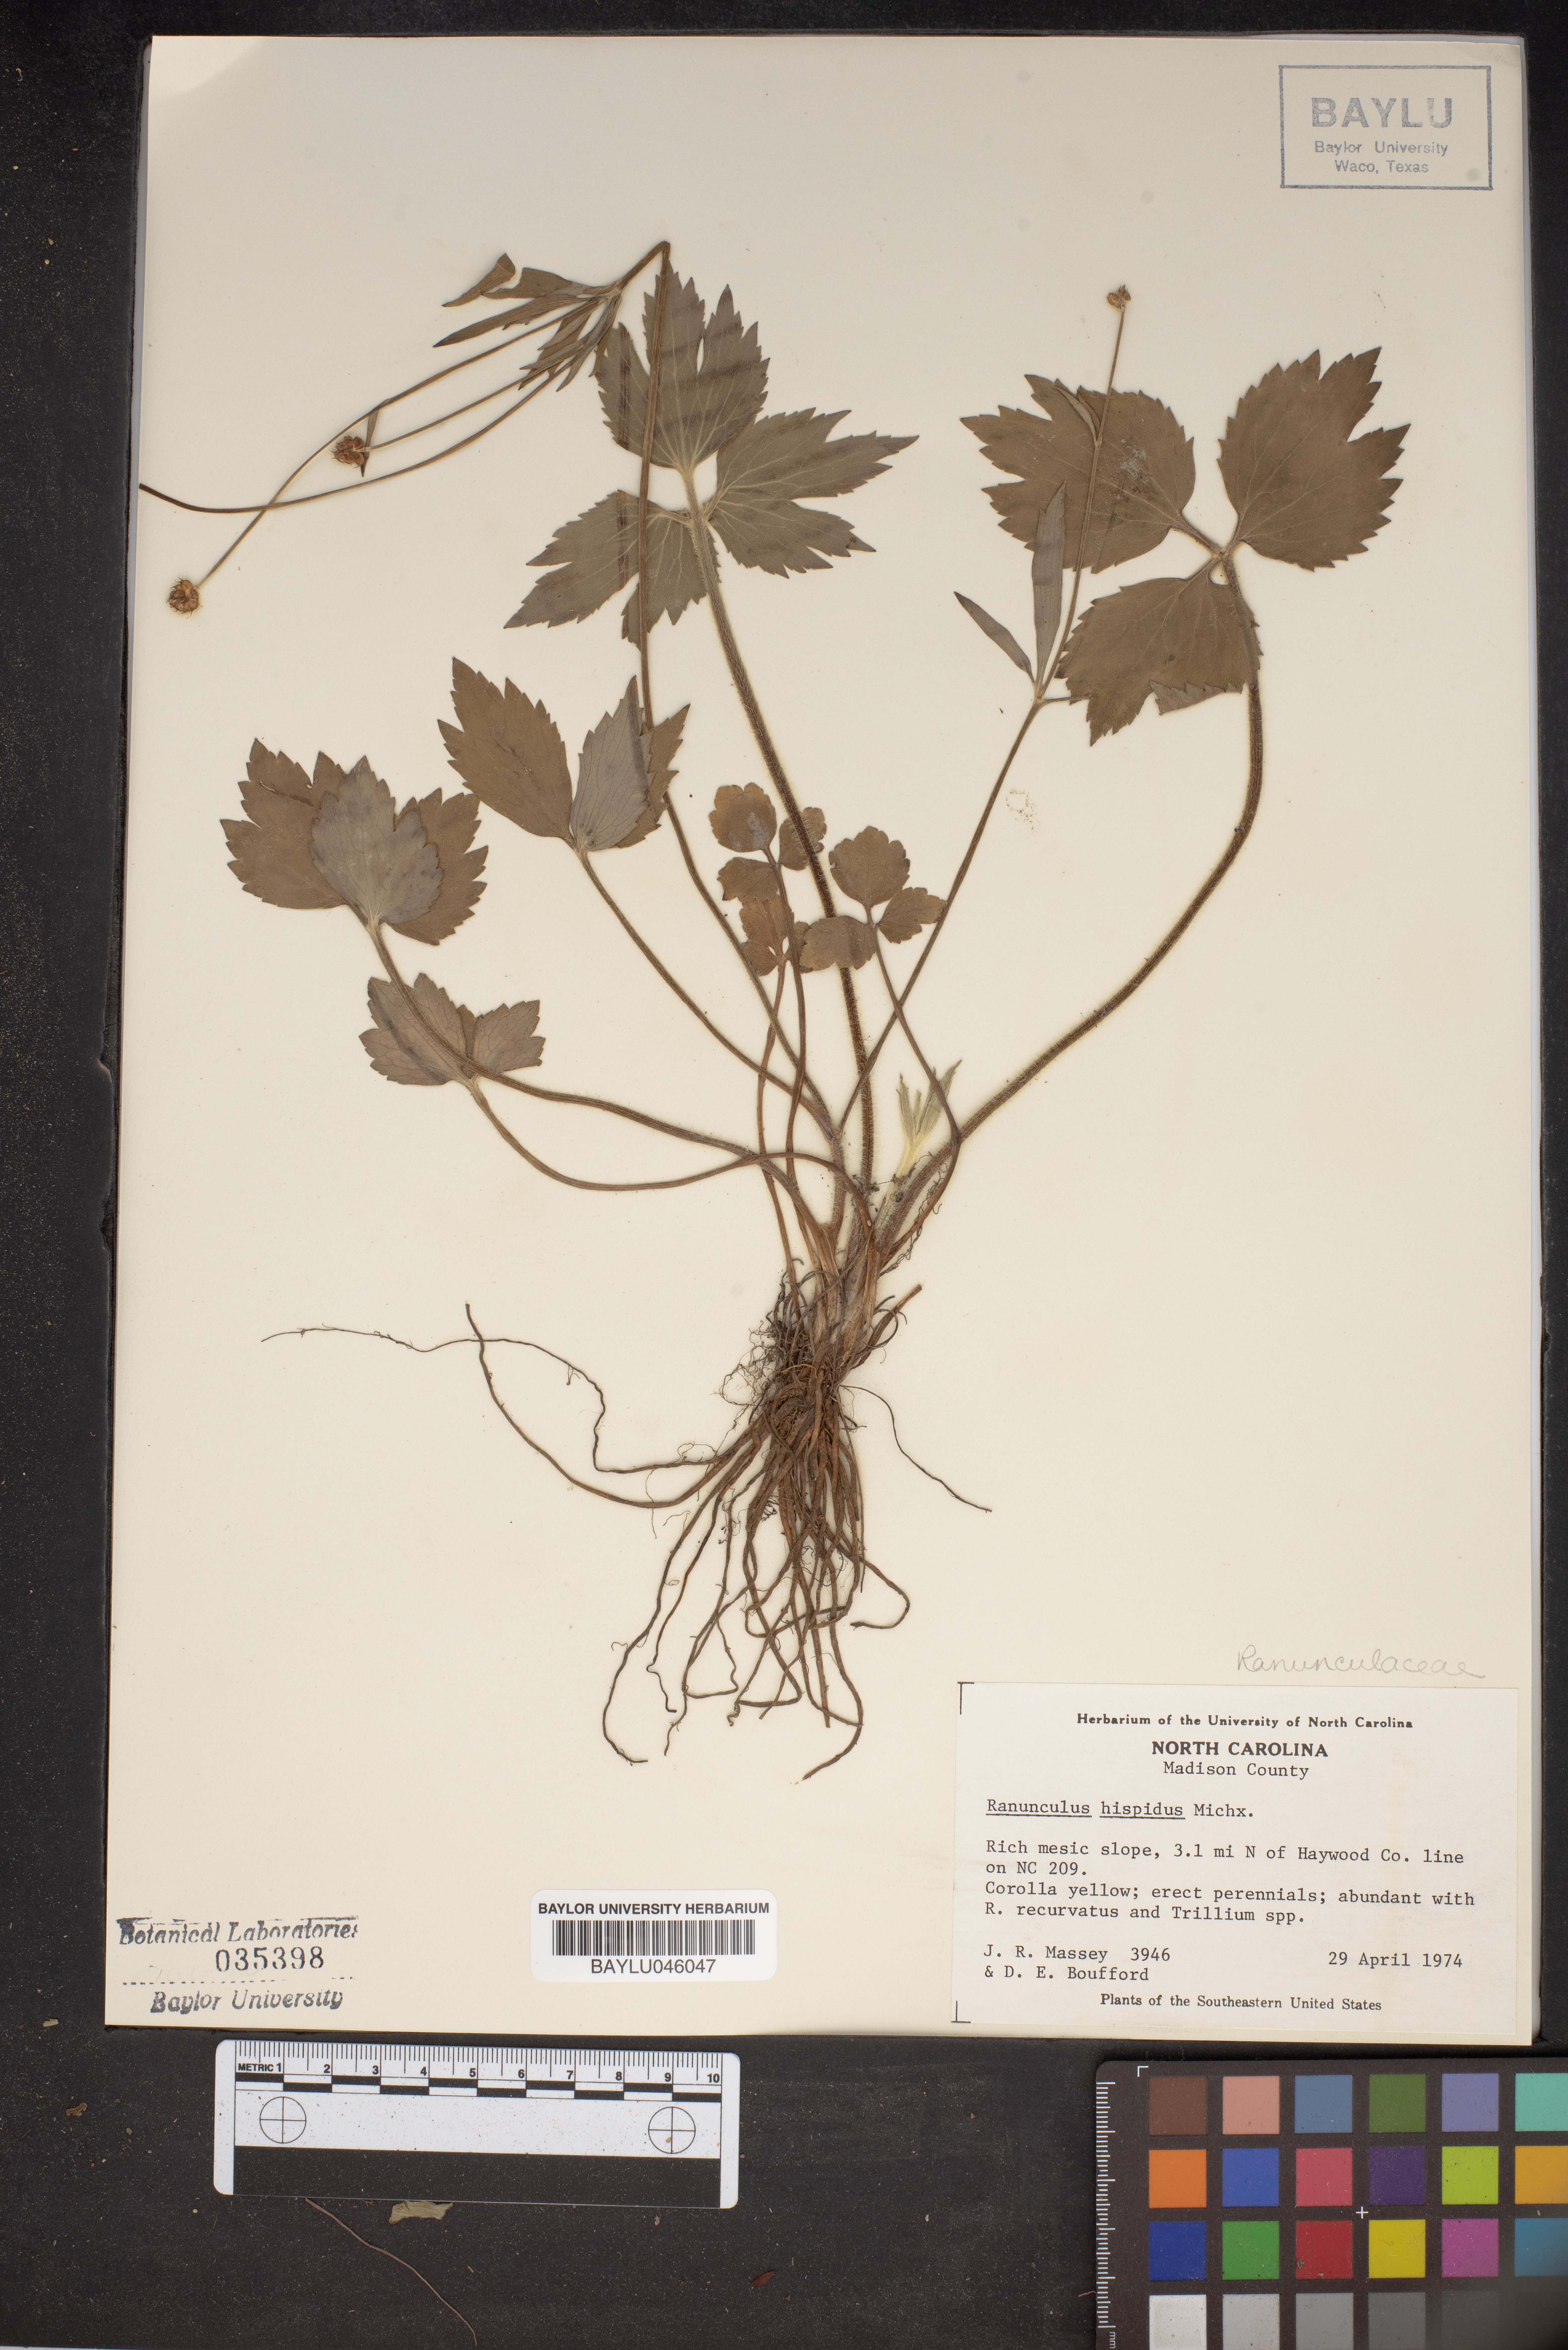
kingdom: Plantae
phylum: Tracheophyta
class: Magnoliopsida
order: Ranunculales
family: Ranunculaceae
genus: Ranunculus
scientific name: Ranunculus hispidus
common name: Bristly buttercup
